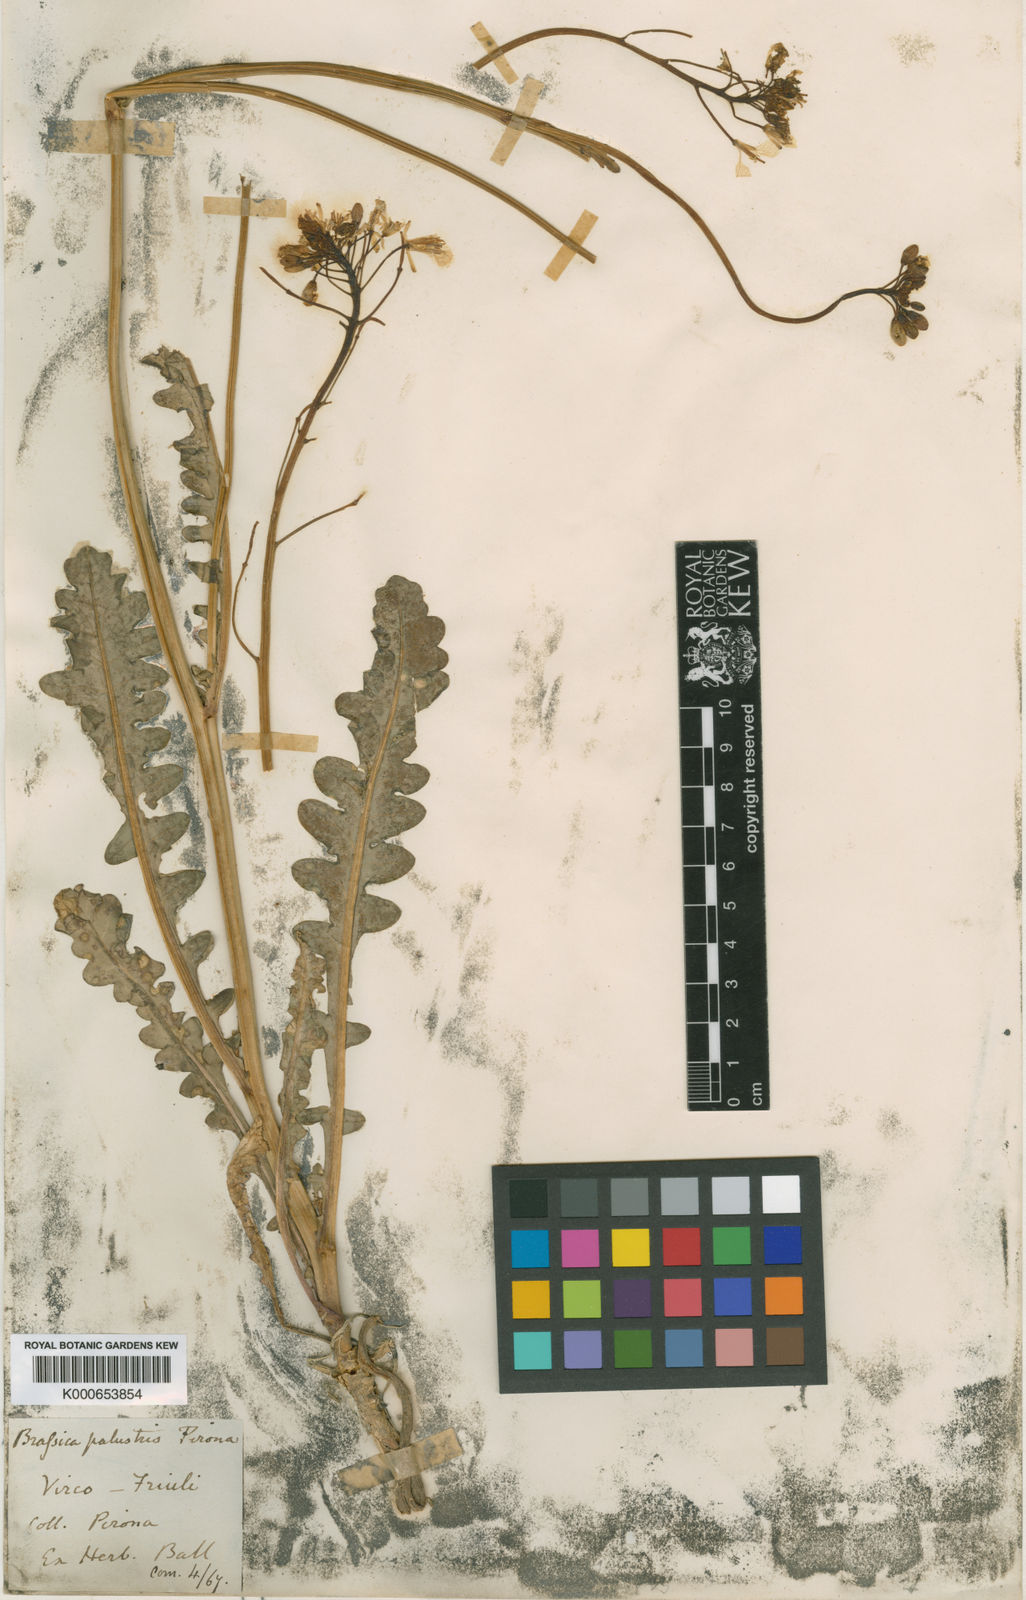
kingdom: Plantae
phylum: Tracheophyta
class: Magnoliopsida
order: Brassicales
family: Brassicaceae
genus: Erucastrum
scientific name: Erucastrum palustre
